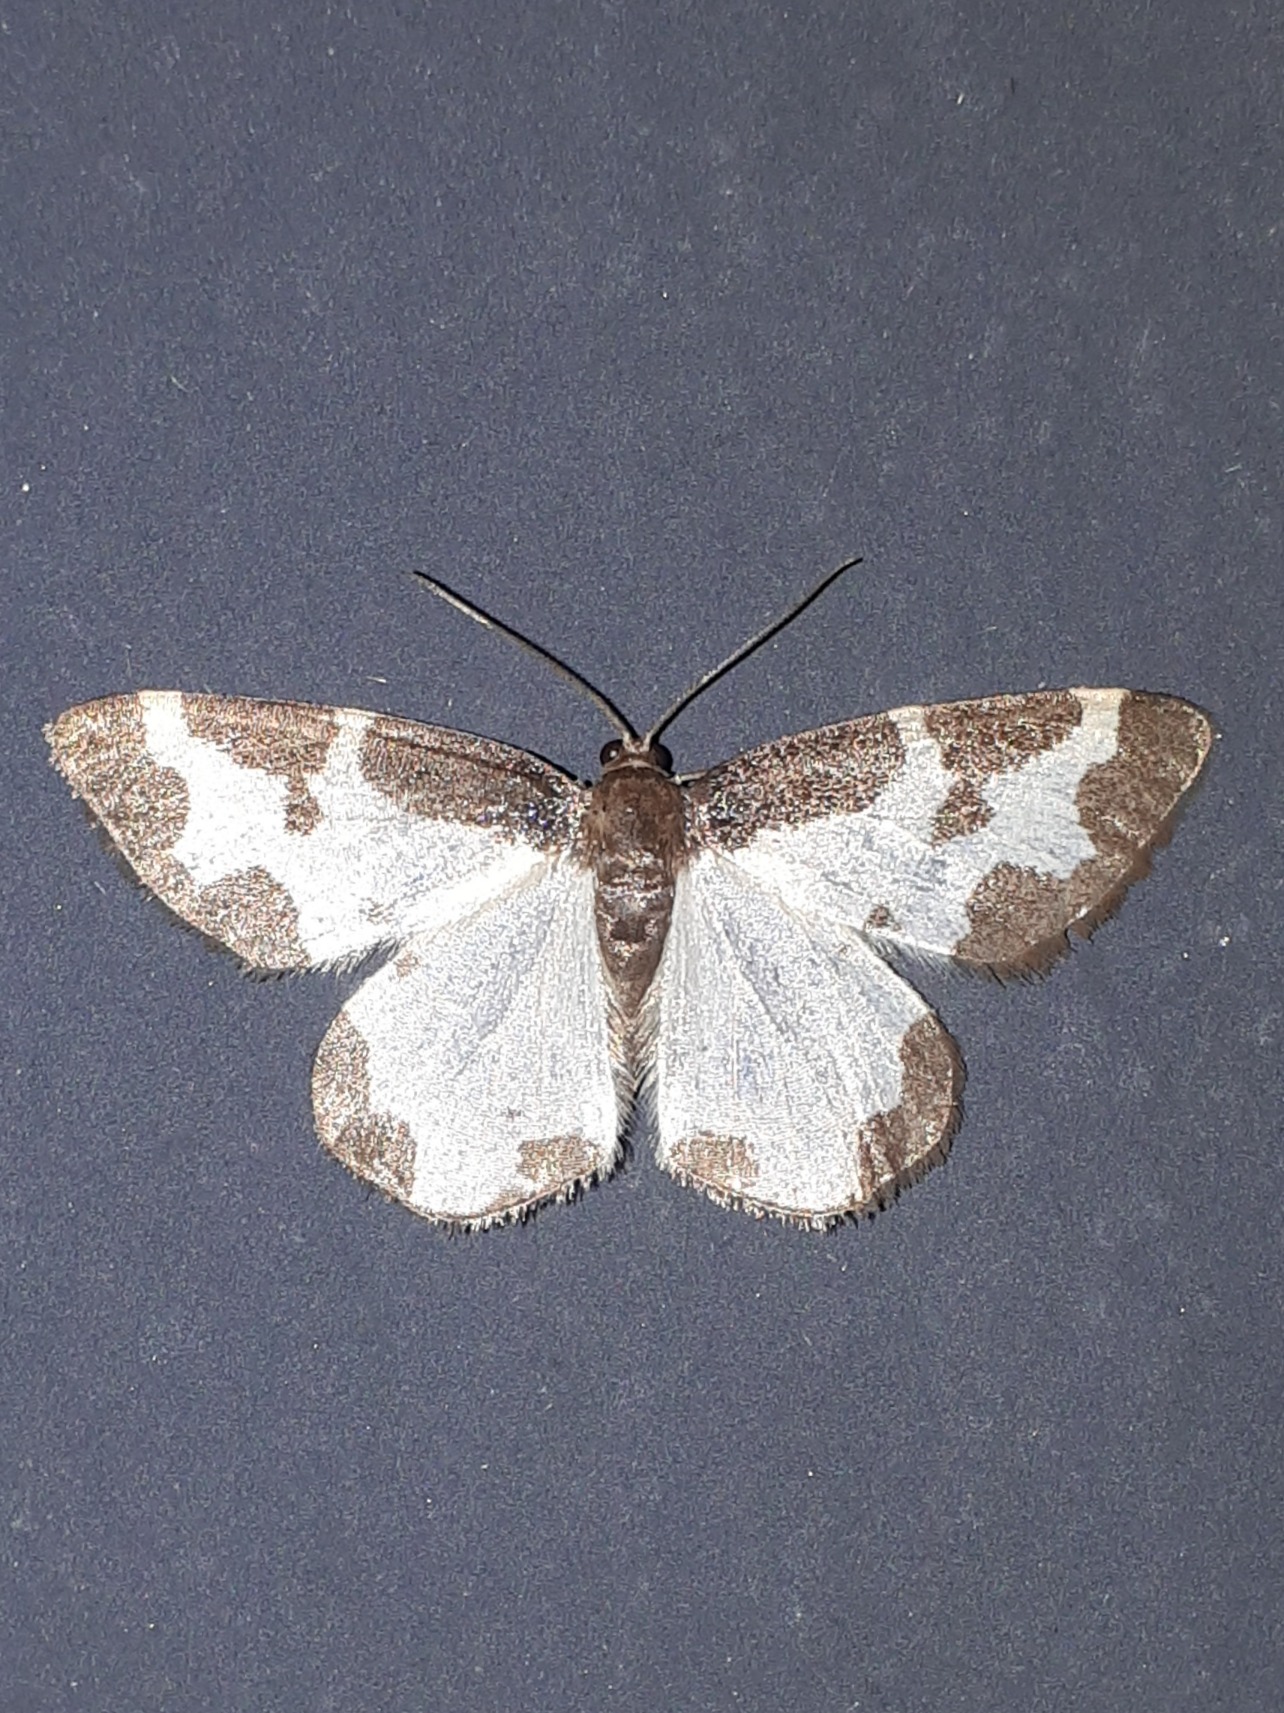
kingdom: Animalia
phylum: Arthropoda
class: Insecta
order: Lepidoptera
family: Geometridae
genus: Lomaspilis
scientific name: Lomaspilis marginata
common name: Sortrandet måler
